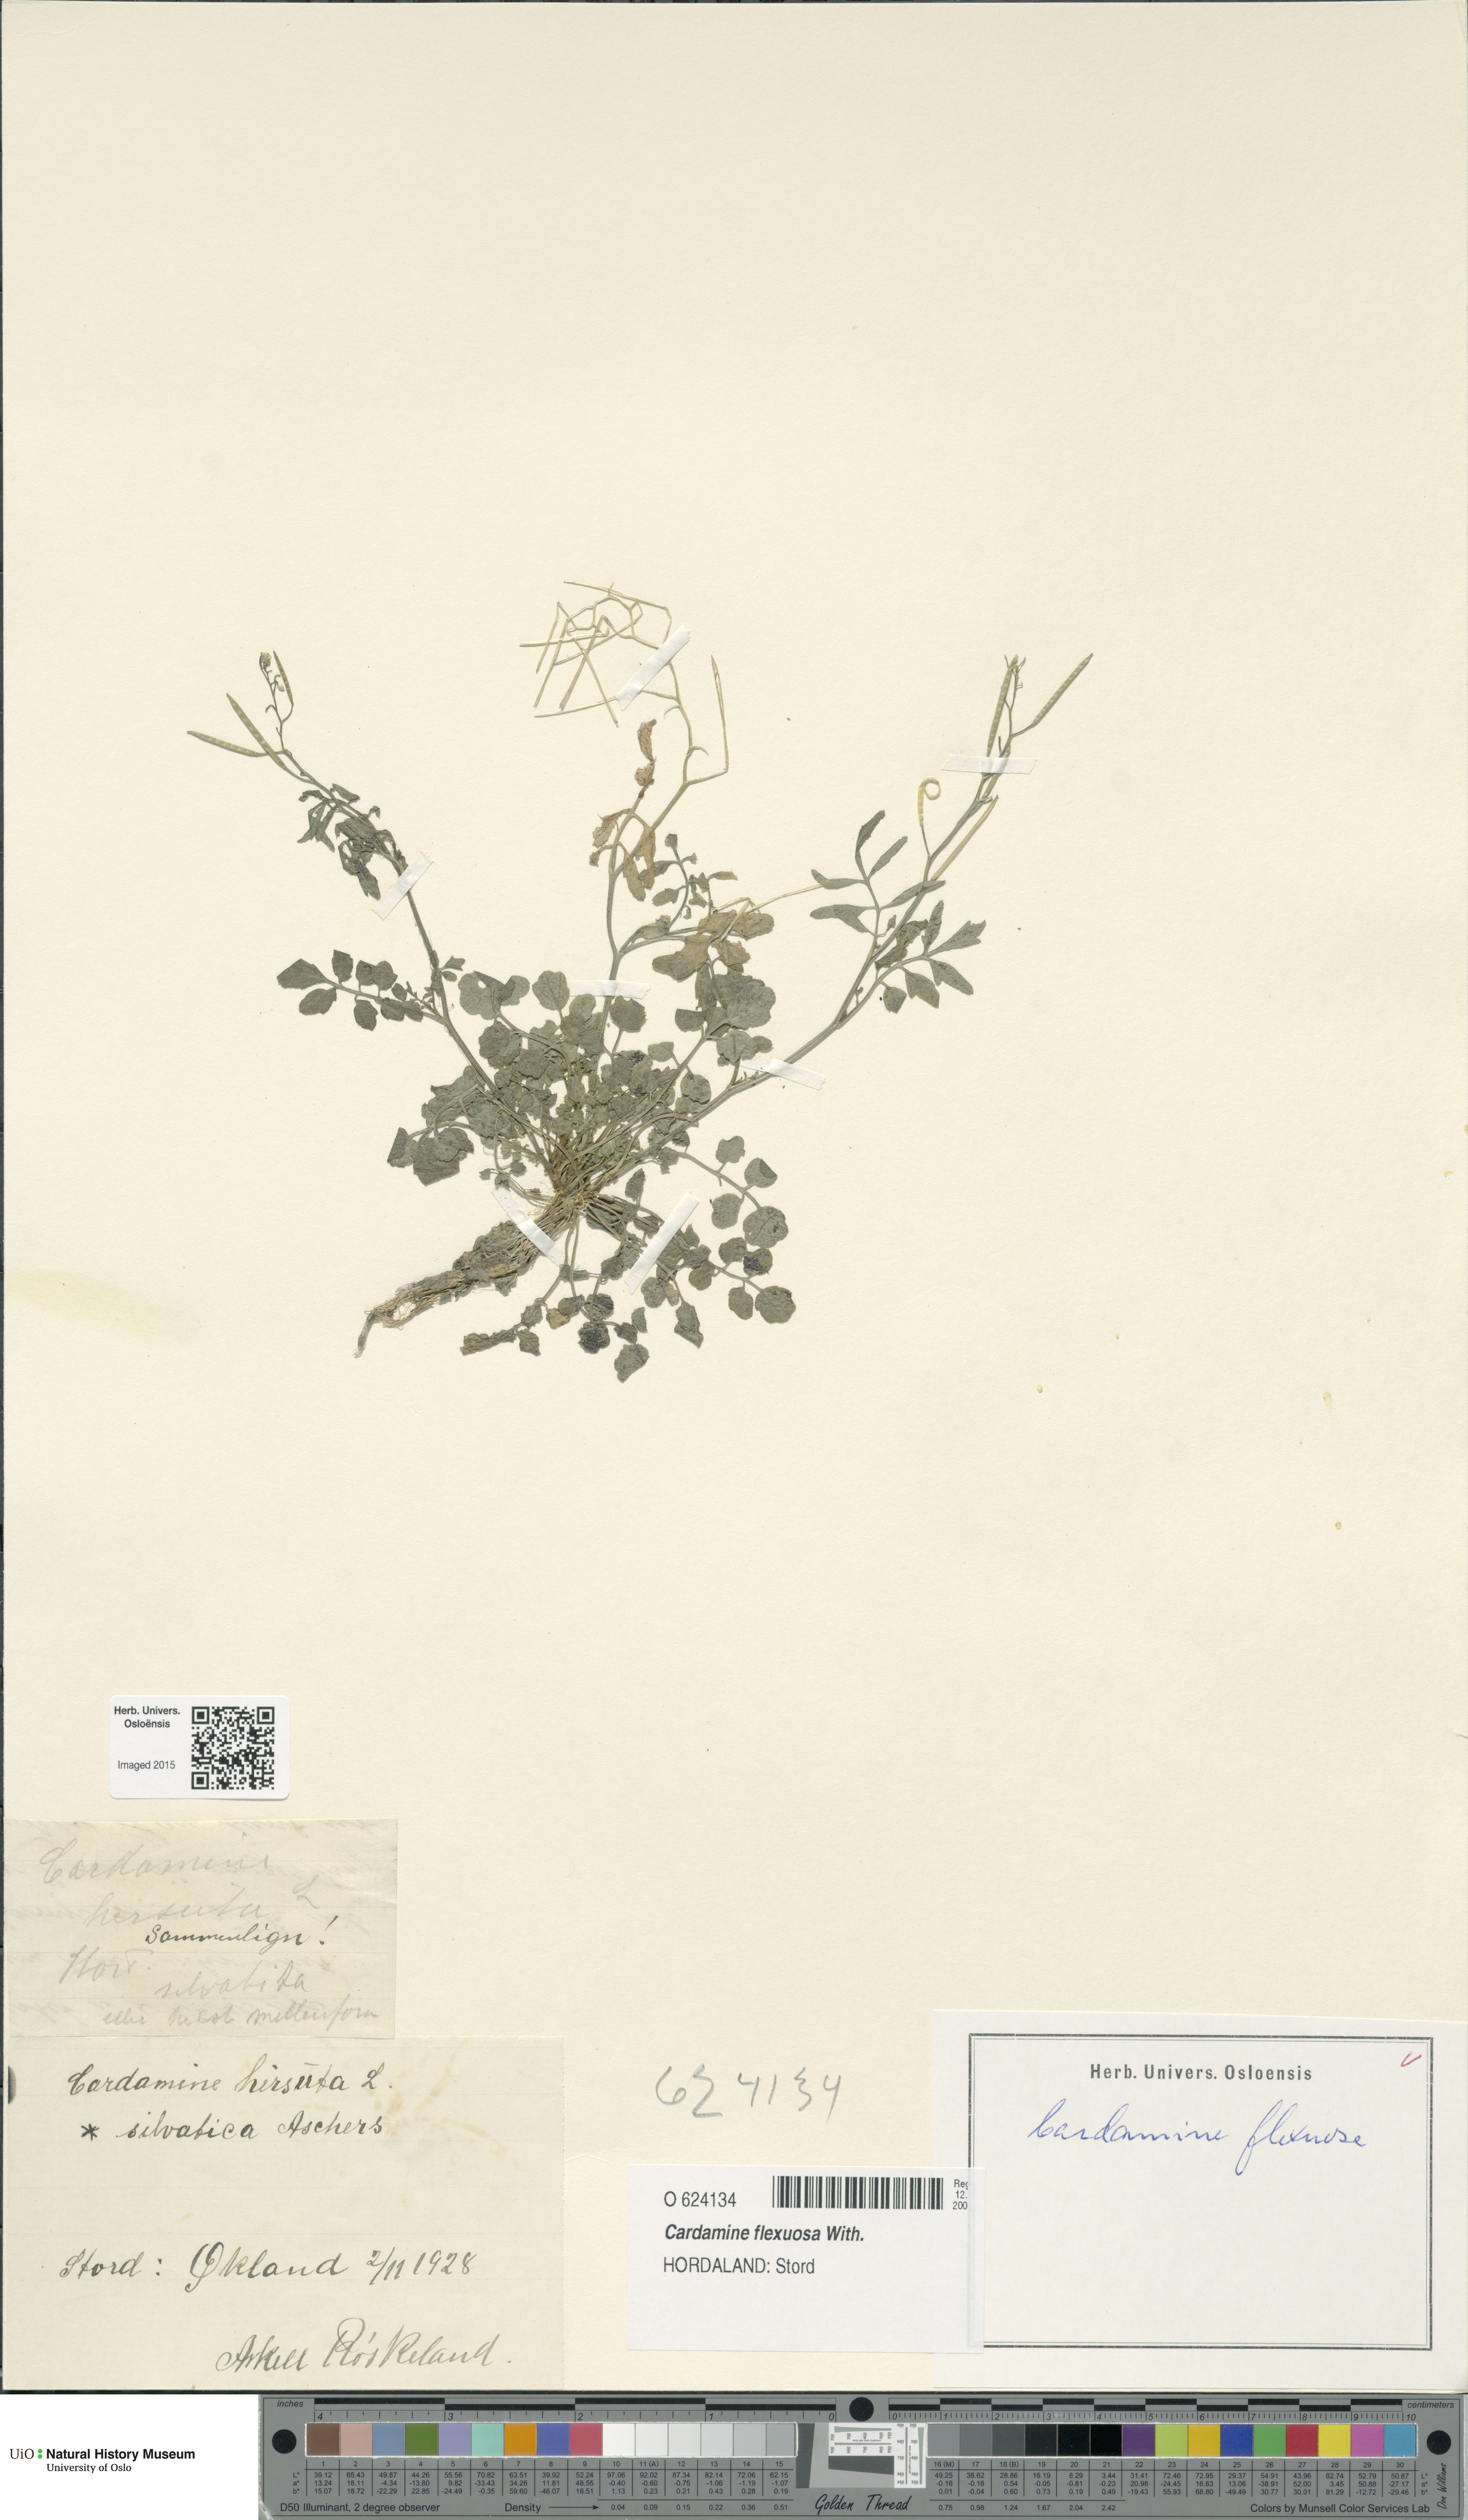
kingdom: Plantae
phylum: Tracheophyta
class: Magnoliopsida
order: Brassicales
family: Brassicaceae
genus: Cardamine
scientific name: Cardamine flexuosa
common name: Woodland bittercress
